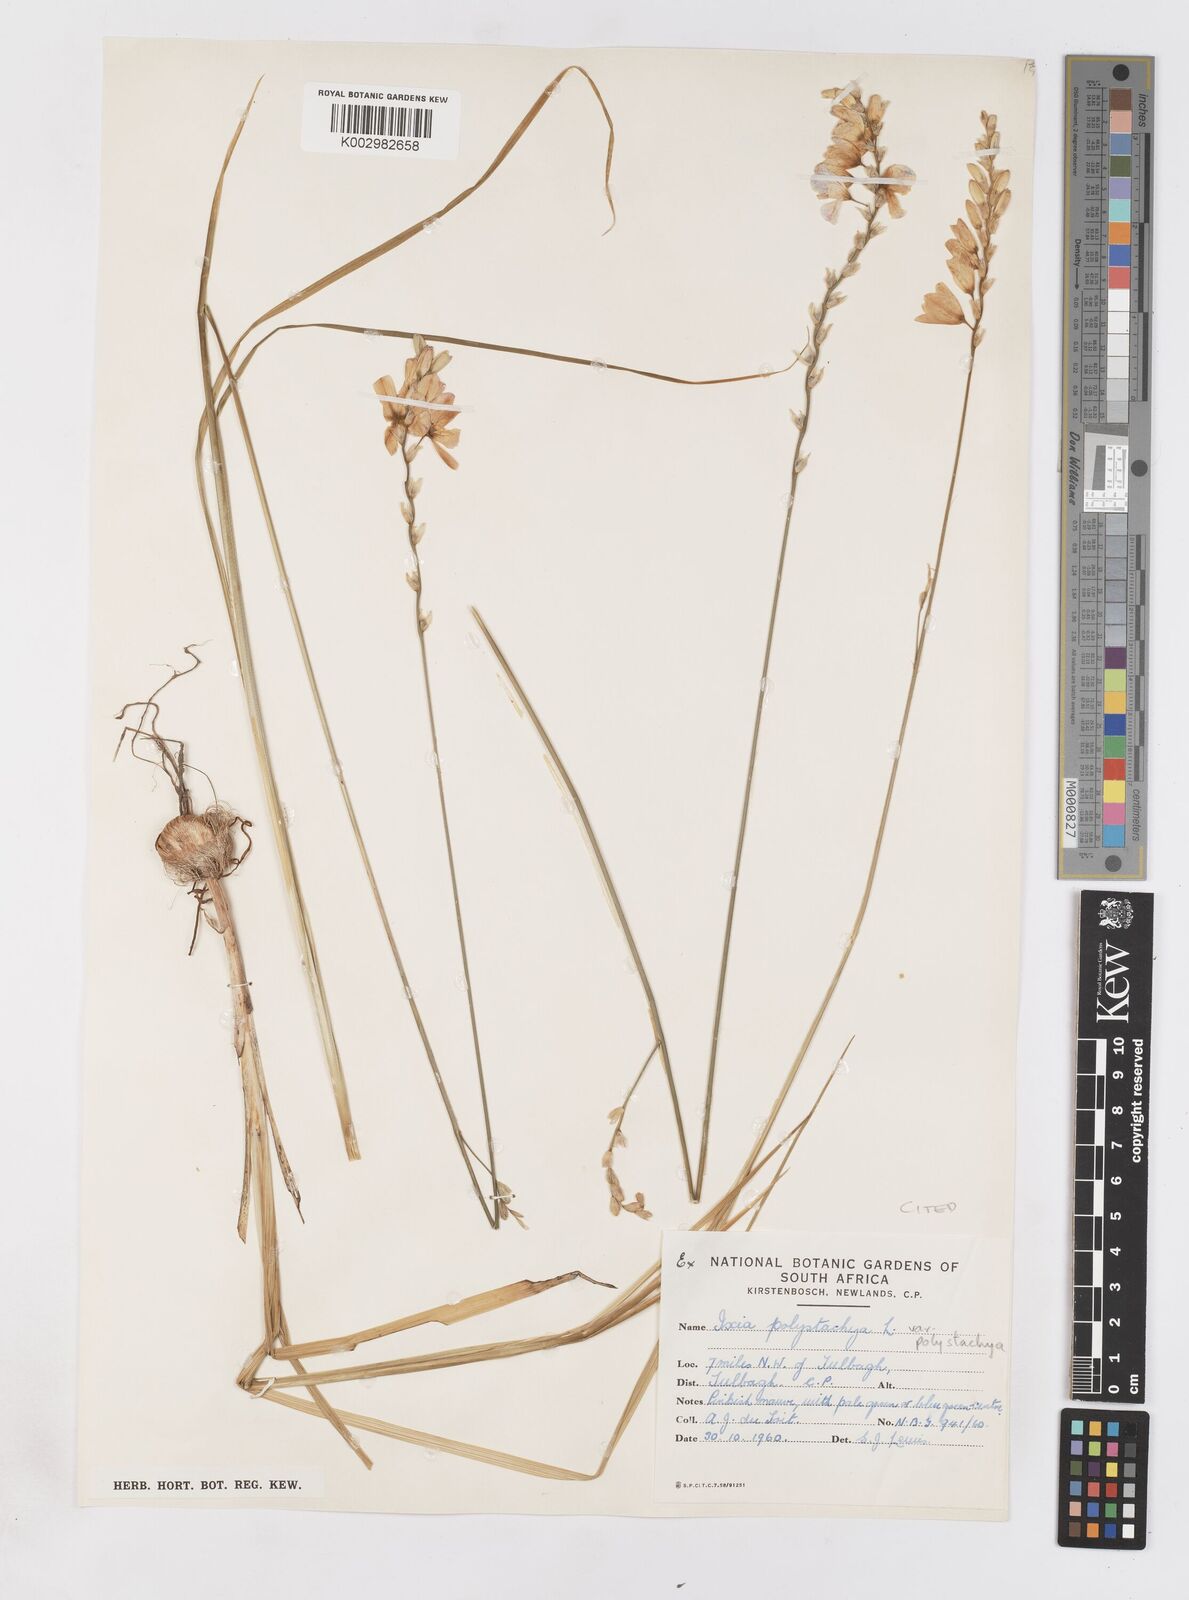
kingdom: Plantae
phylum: Tracheophyta
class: Liliopsida
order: Asparagales
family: Iridaceae
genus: Ixia
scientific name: Ixia polystachya
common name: White-and-yellow-flower cornlily
